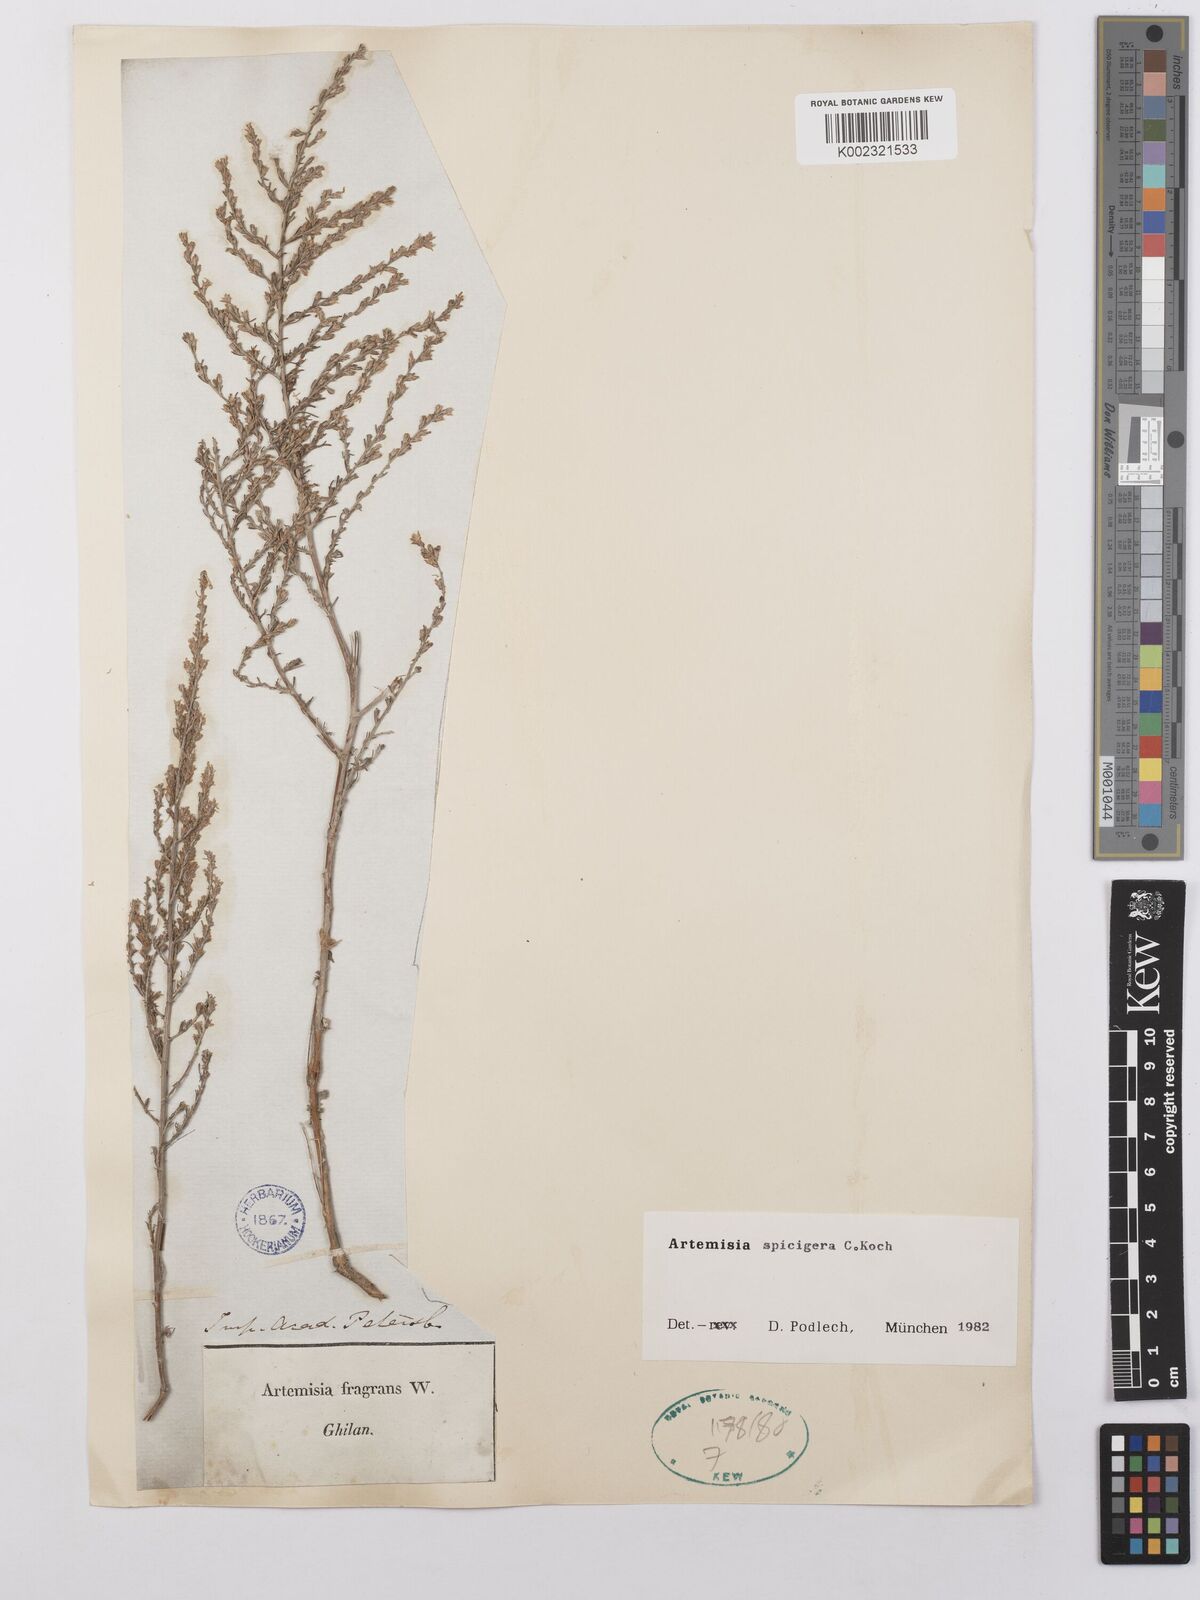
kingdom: Plantae
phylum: Tracheophyta
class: Magnoliopsida
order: Asterales
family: Asteraceae
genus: Artemisia
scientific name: Artemisia spicigera
